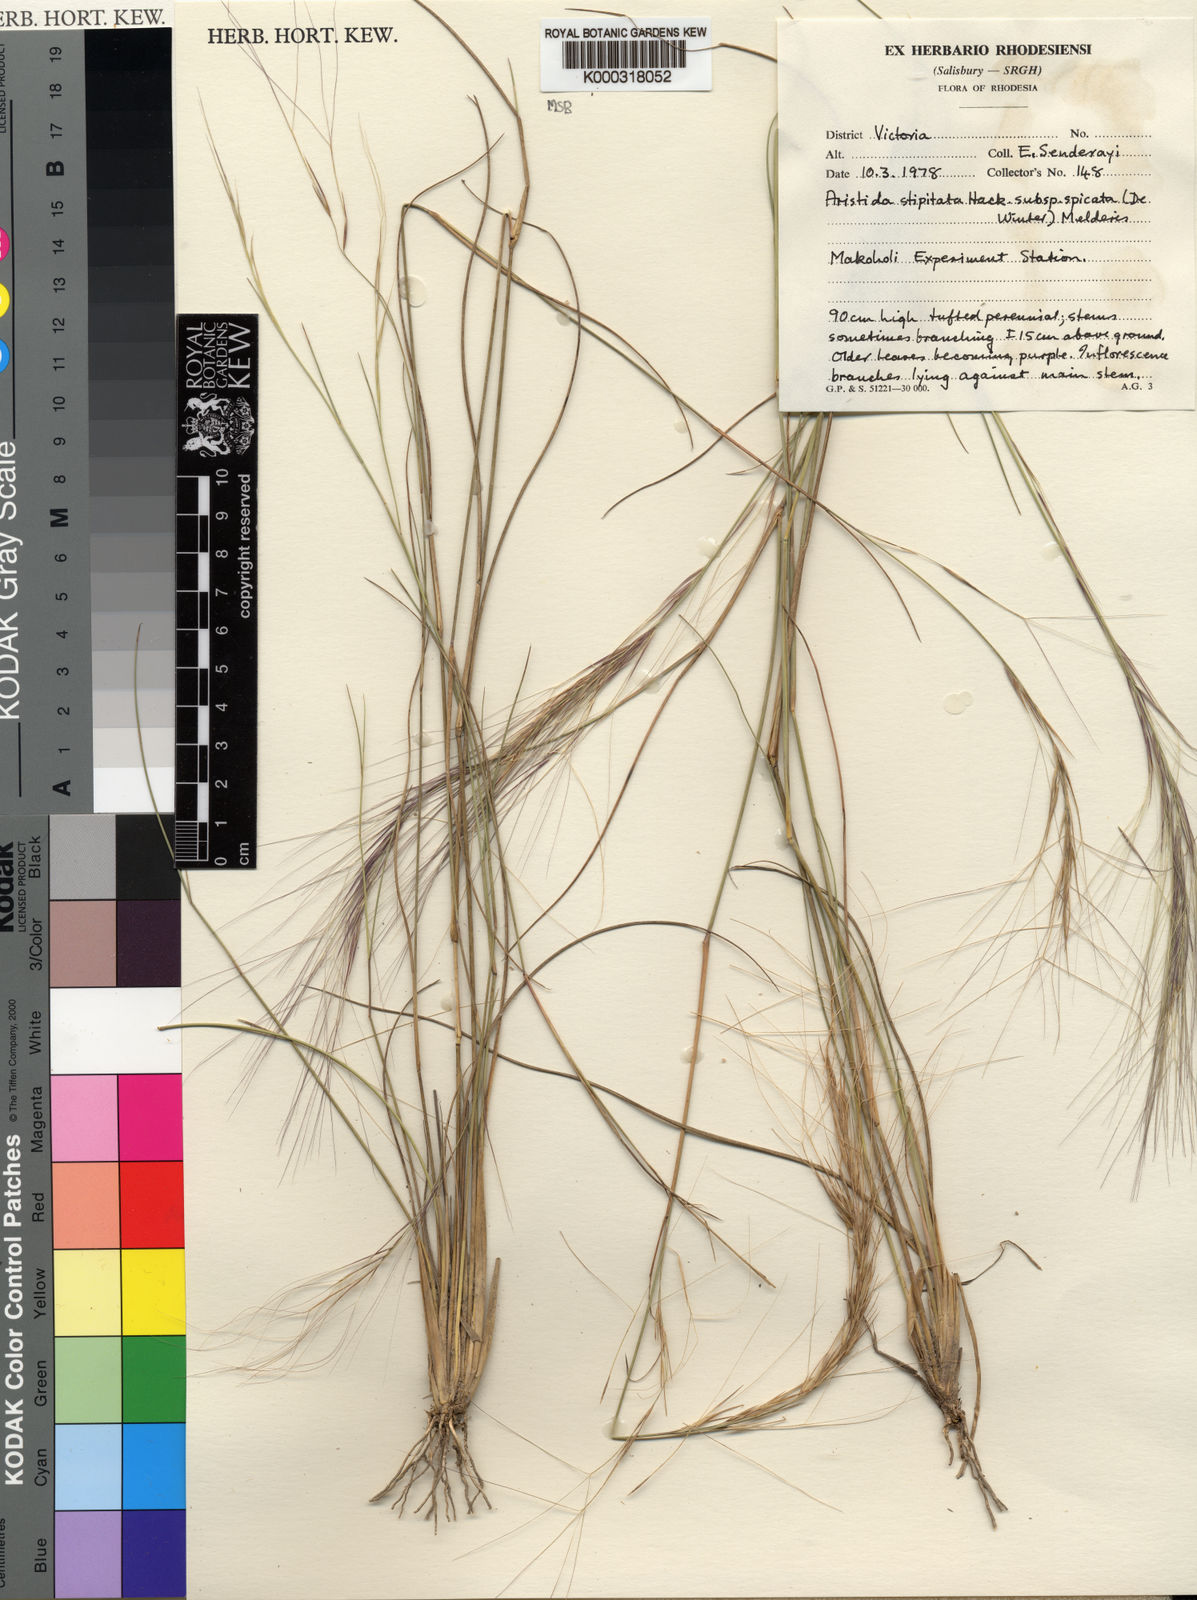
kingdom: Plantae
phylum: Tracheophyta
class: Liliopsida
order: Poales
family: Poaceae
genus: Aristida
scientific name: Aristida stipitata
